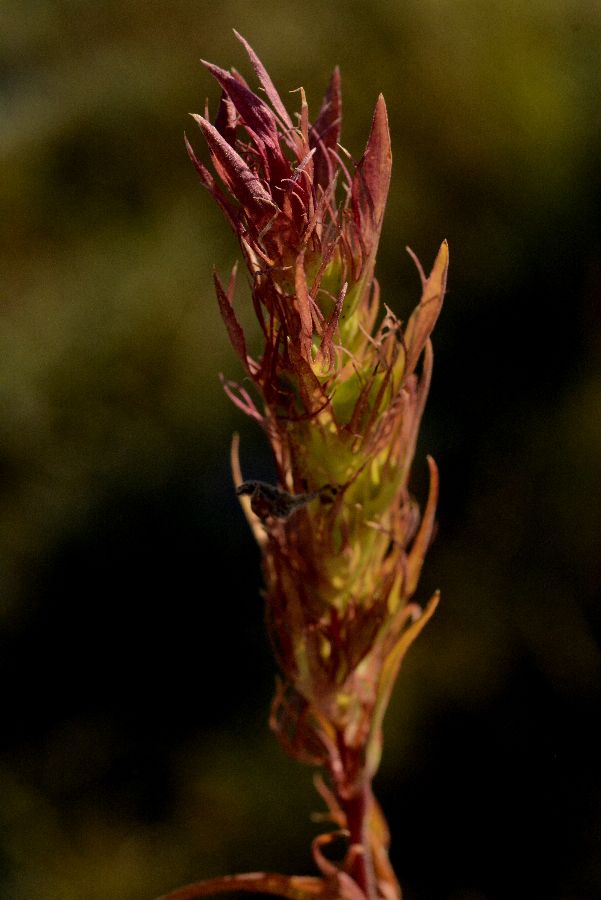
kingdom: Plantae
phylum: Tracheophyta
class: Magnoliopsida
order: Lamiales
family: Orobanchaceae
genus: Melampyrum
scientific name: Melampyrum
